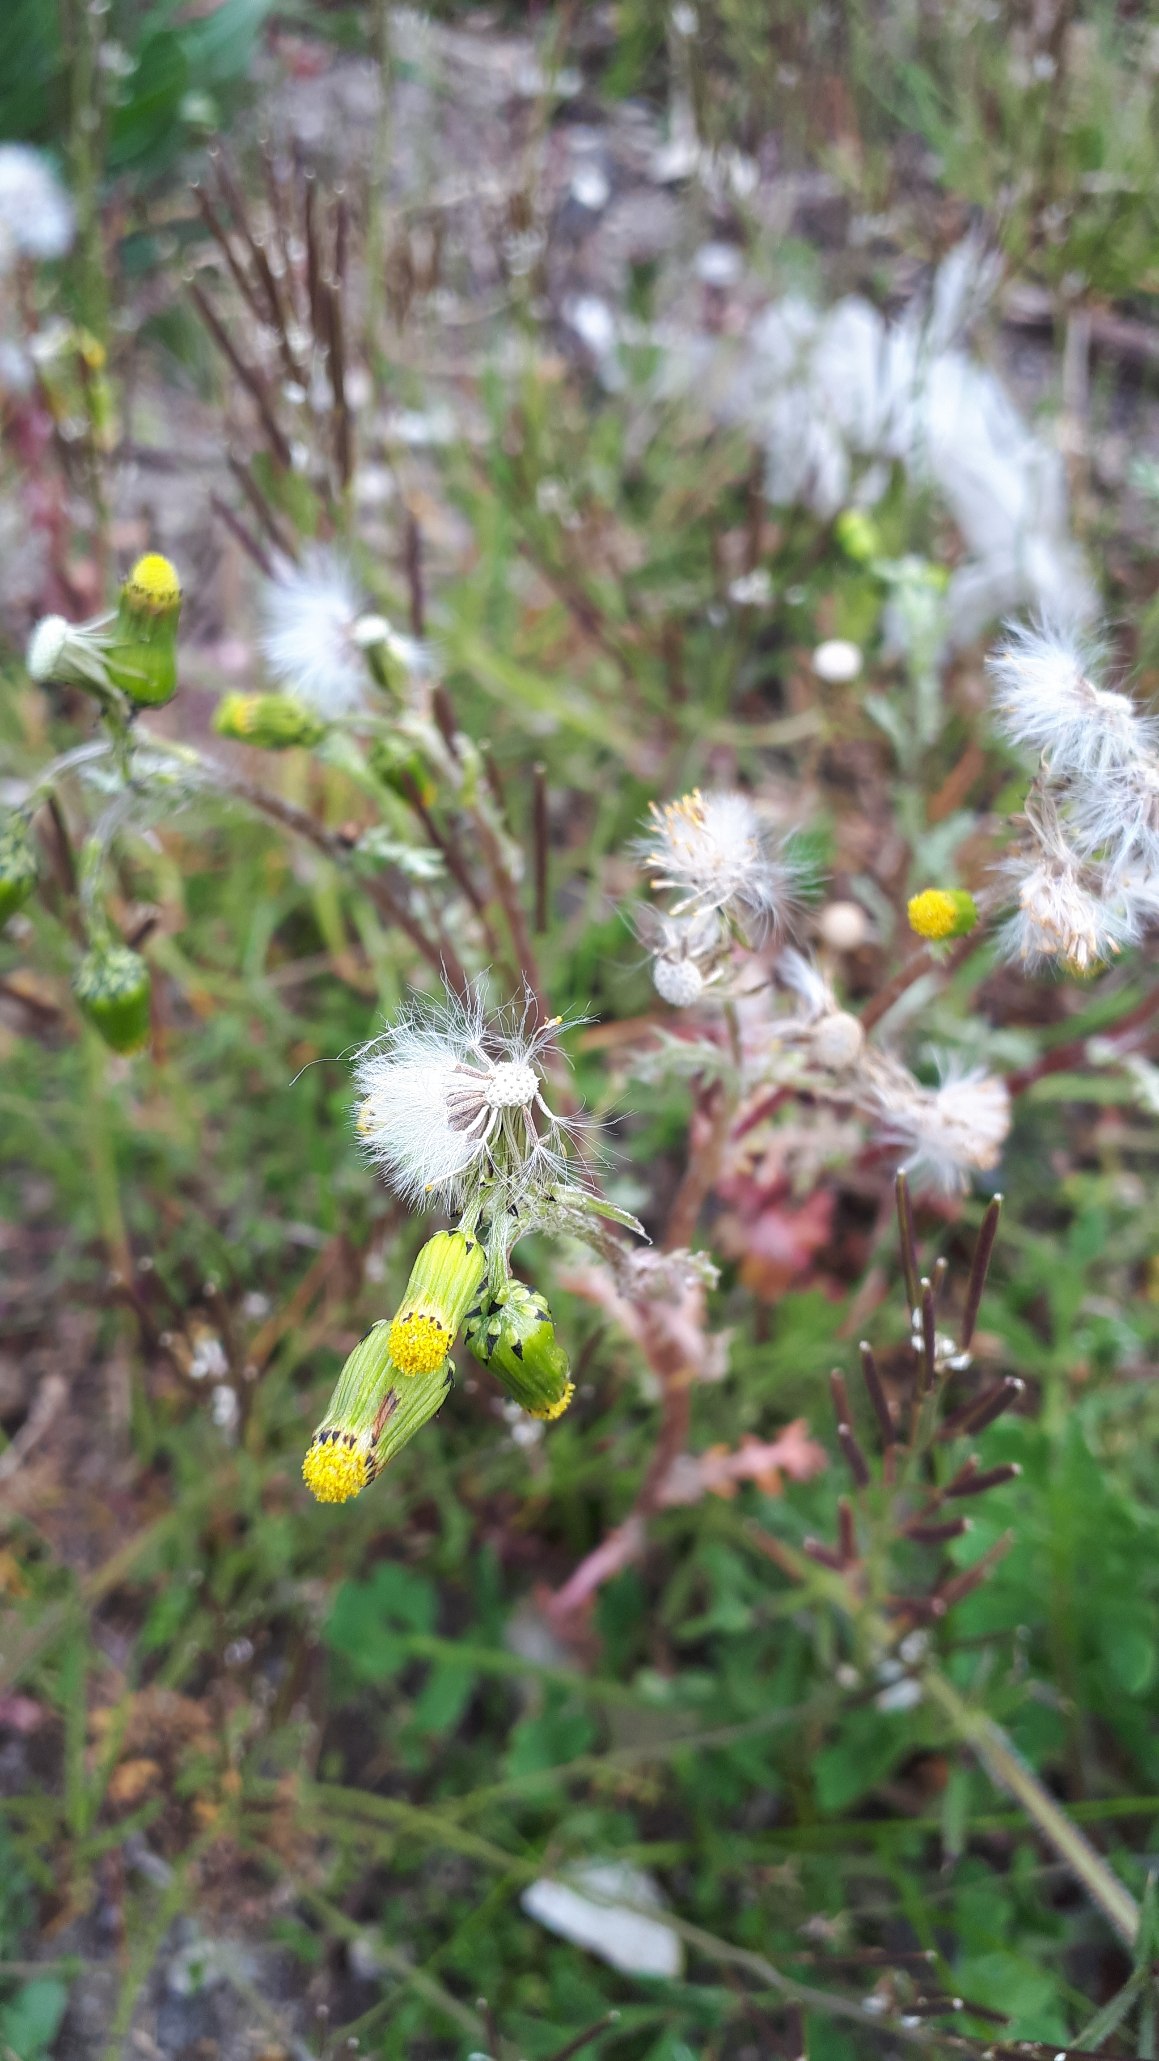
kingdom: Plantae
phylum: Tracheophyta
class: Magnoliopsida
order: Asterales
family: Asteraceae
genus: Senecio
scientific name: Senecio vulgaris
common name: Almindelig brandbæger
